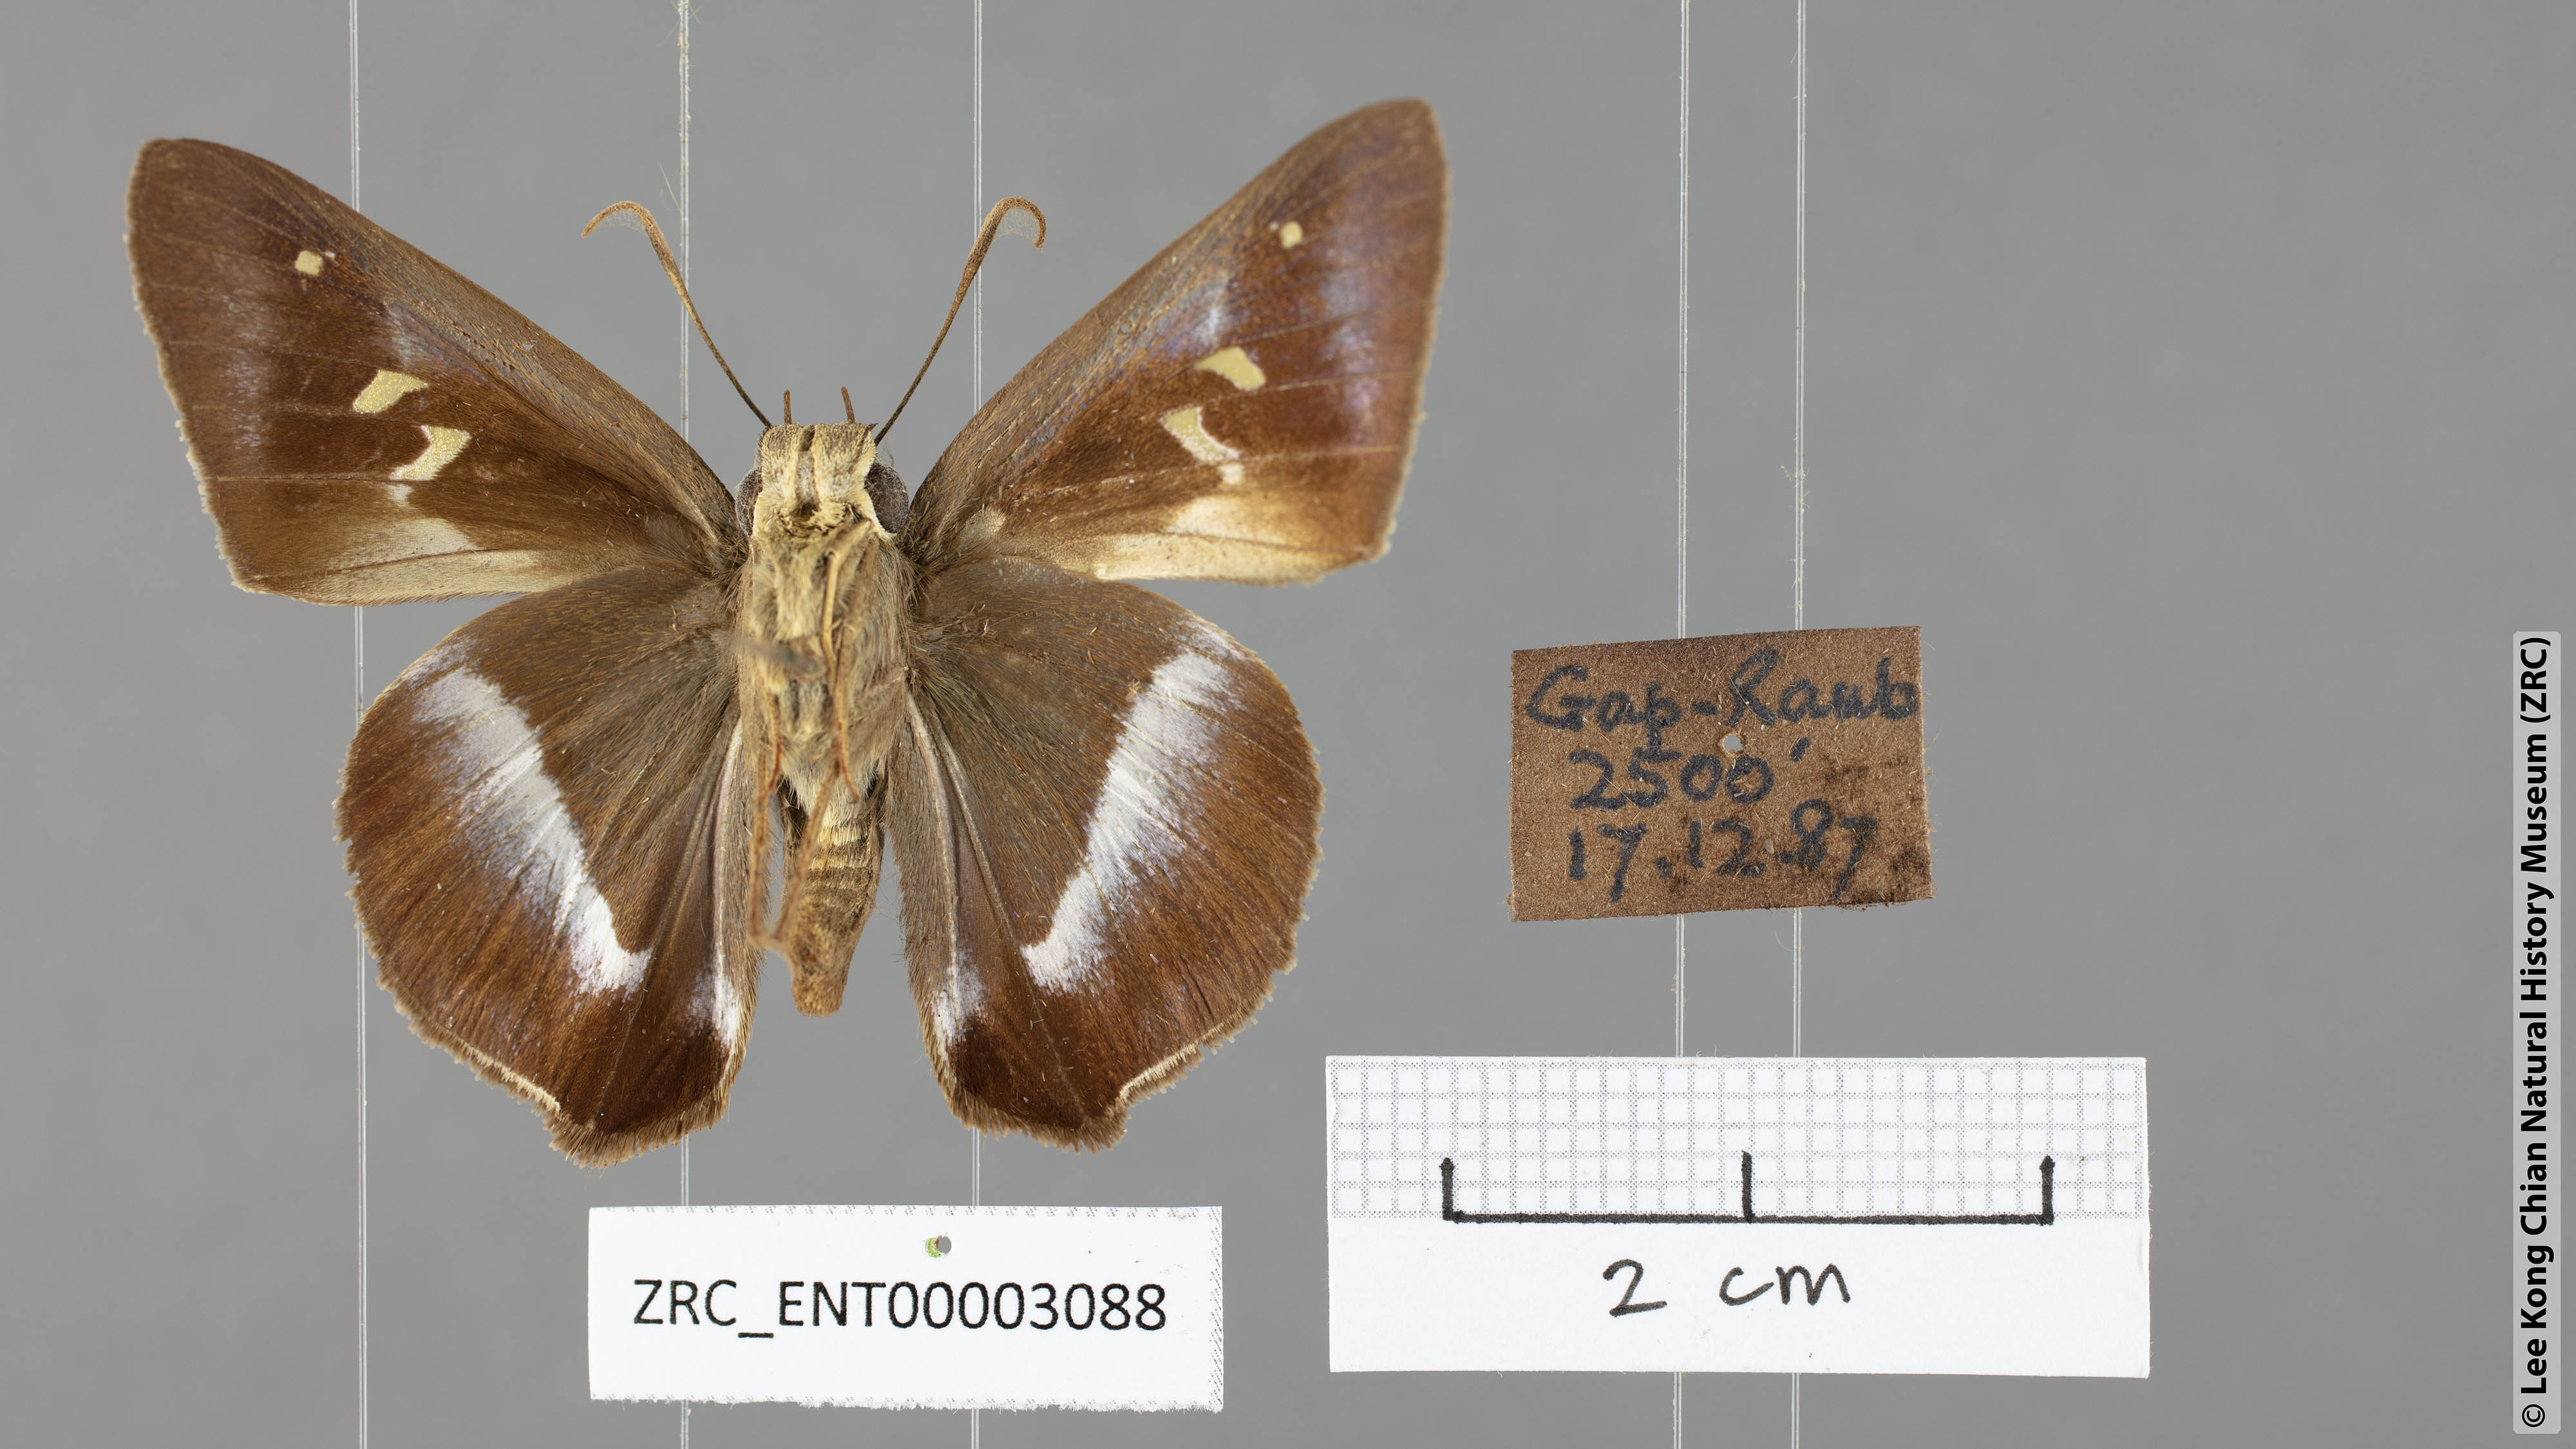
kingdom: Animalia
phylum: Arthropoda
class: Insecta
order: Lepidoptera
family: Hesperiidae
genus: Hasora
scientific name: Hasora vitta
